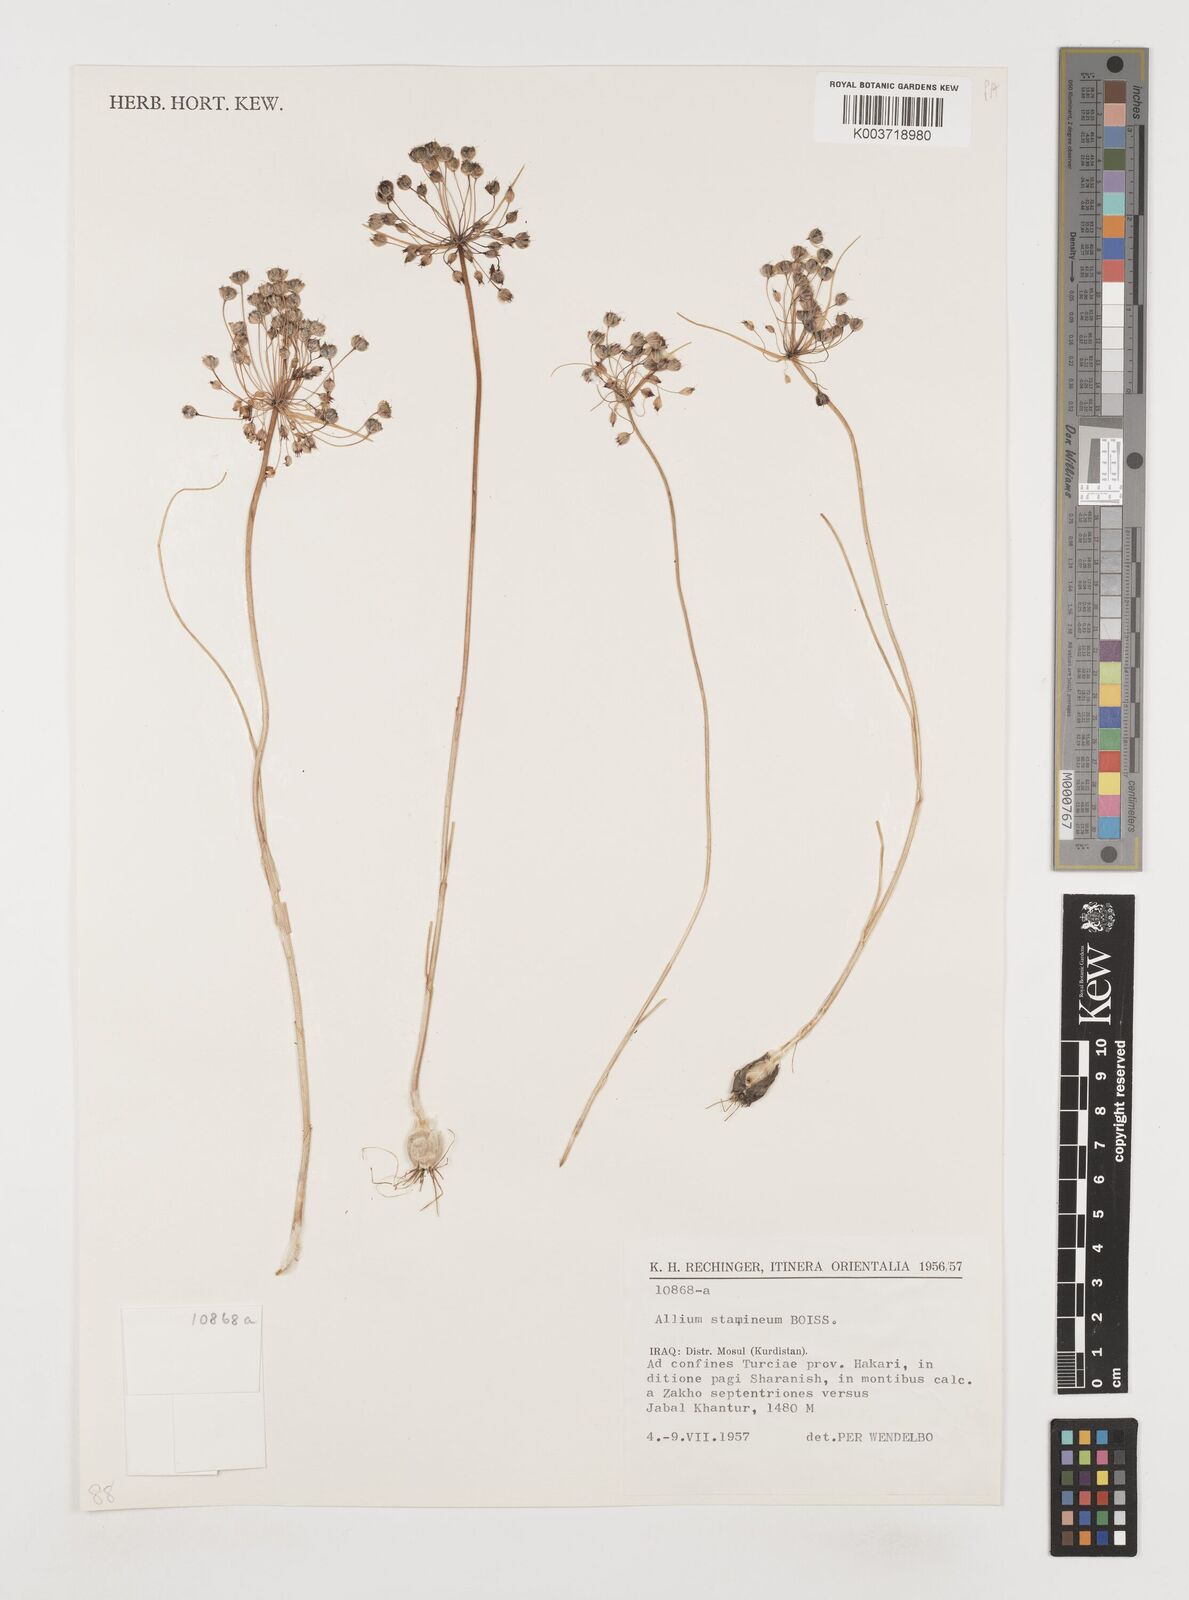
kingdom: Plantae
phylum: Tracheophyta
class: Liliopsida
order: Asparagales
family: Amaryllidaceae
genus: Allium
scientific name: Allium stamineum
